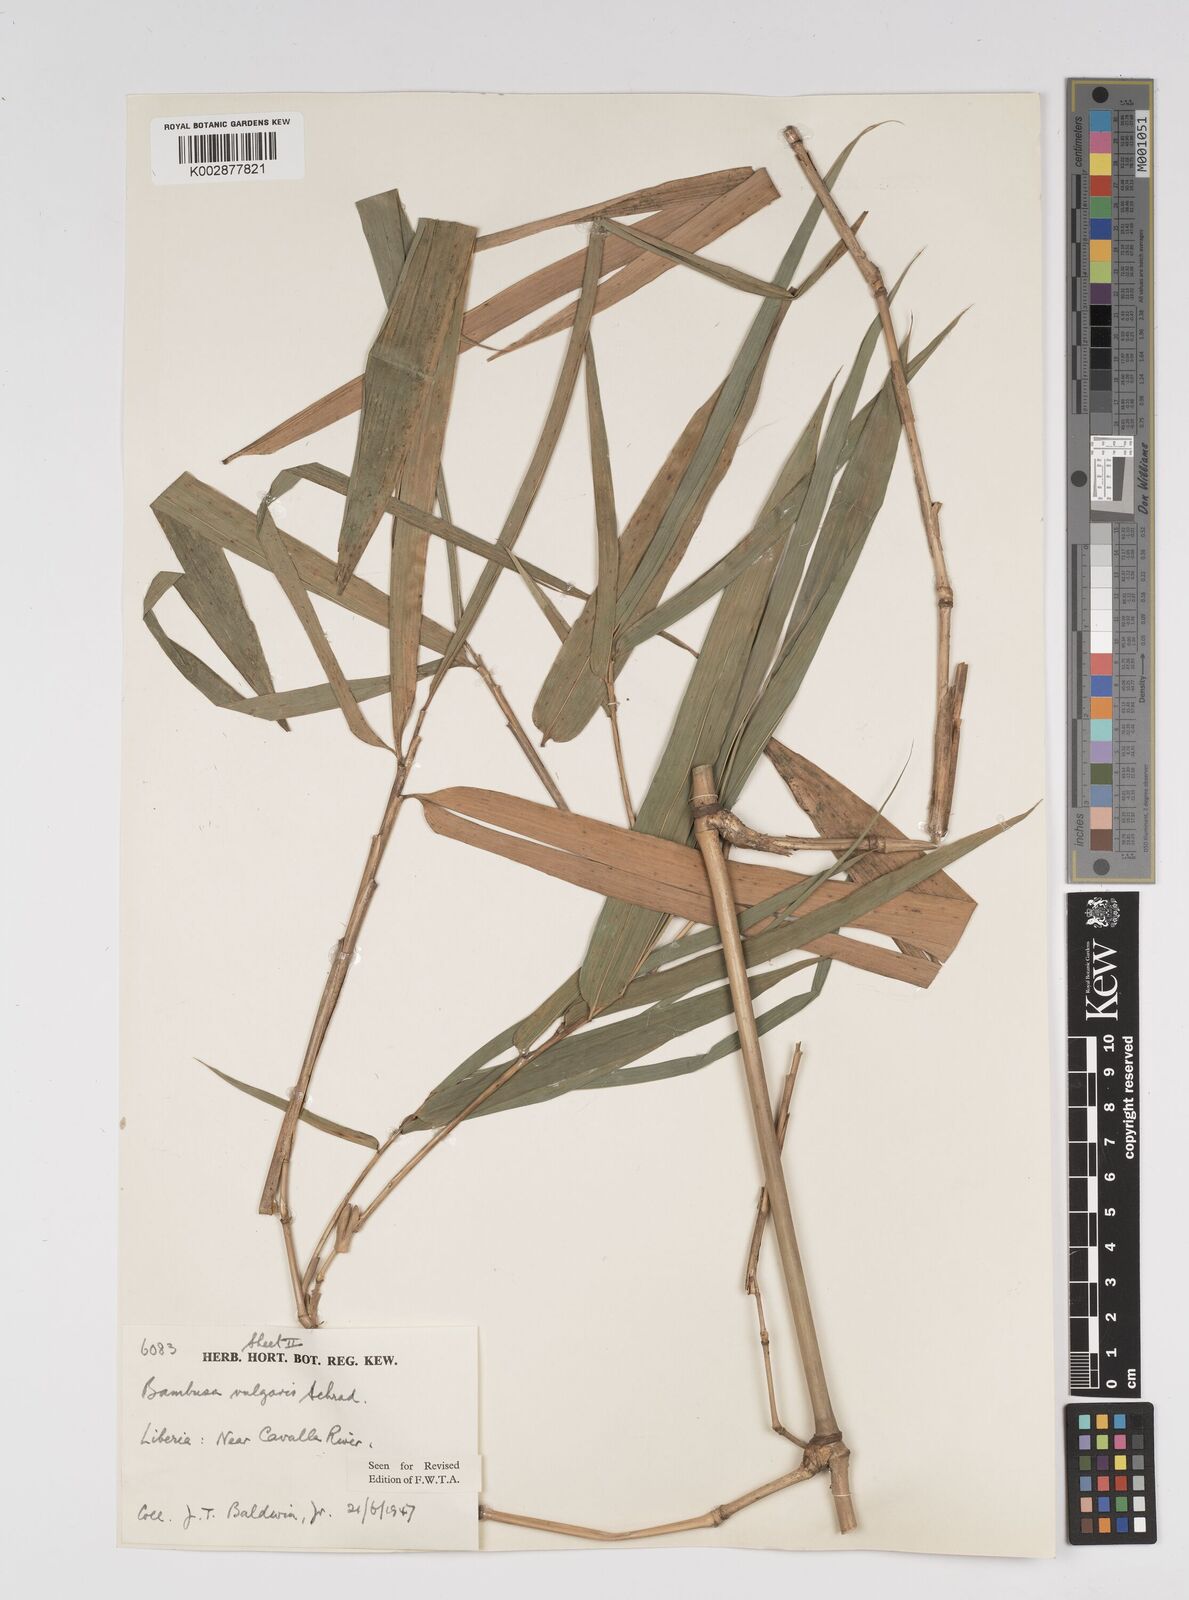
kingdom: Plantae
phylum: Tracheophyta
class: Liliopsida
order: Poales
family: Poaceae
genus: Bambusa
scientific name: Bambusa vulgaris
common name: Common bamboo
